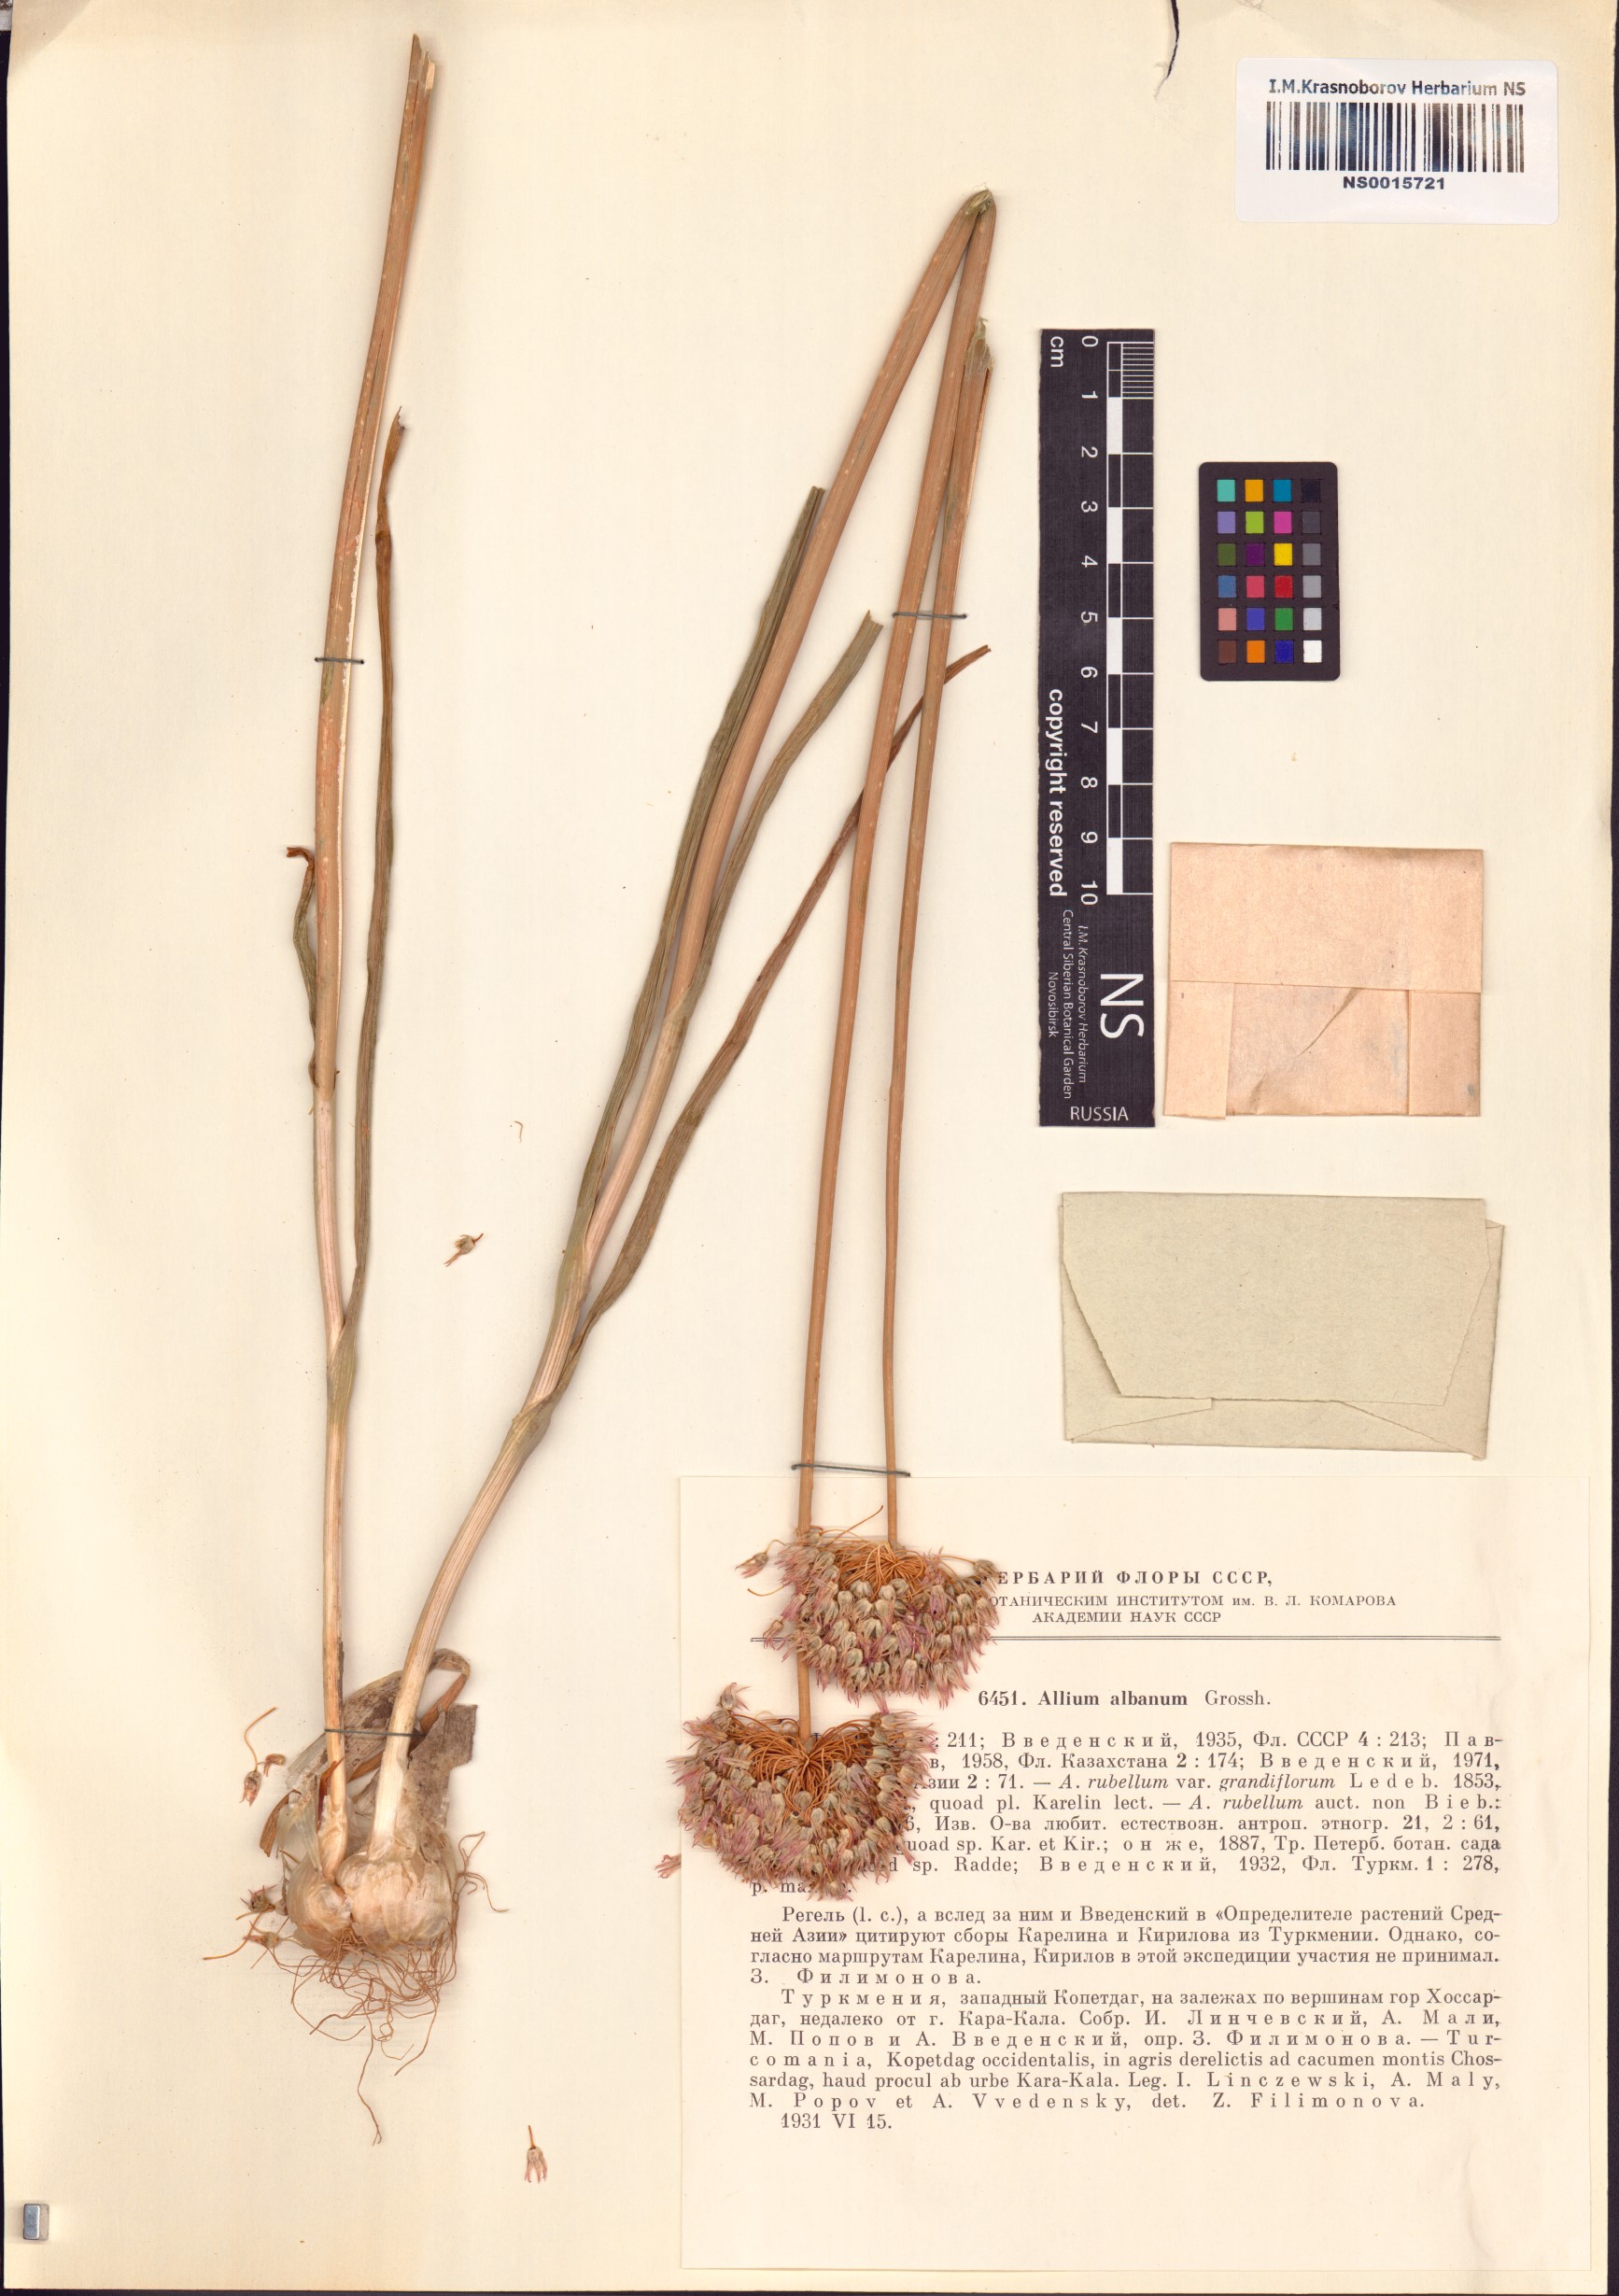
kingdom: Plantae
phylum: Tracheophyta
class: Liliopsida
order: Asparagales
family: Amaryllidaceae
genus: Allium
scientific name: Allium rubellum
